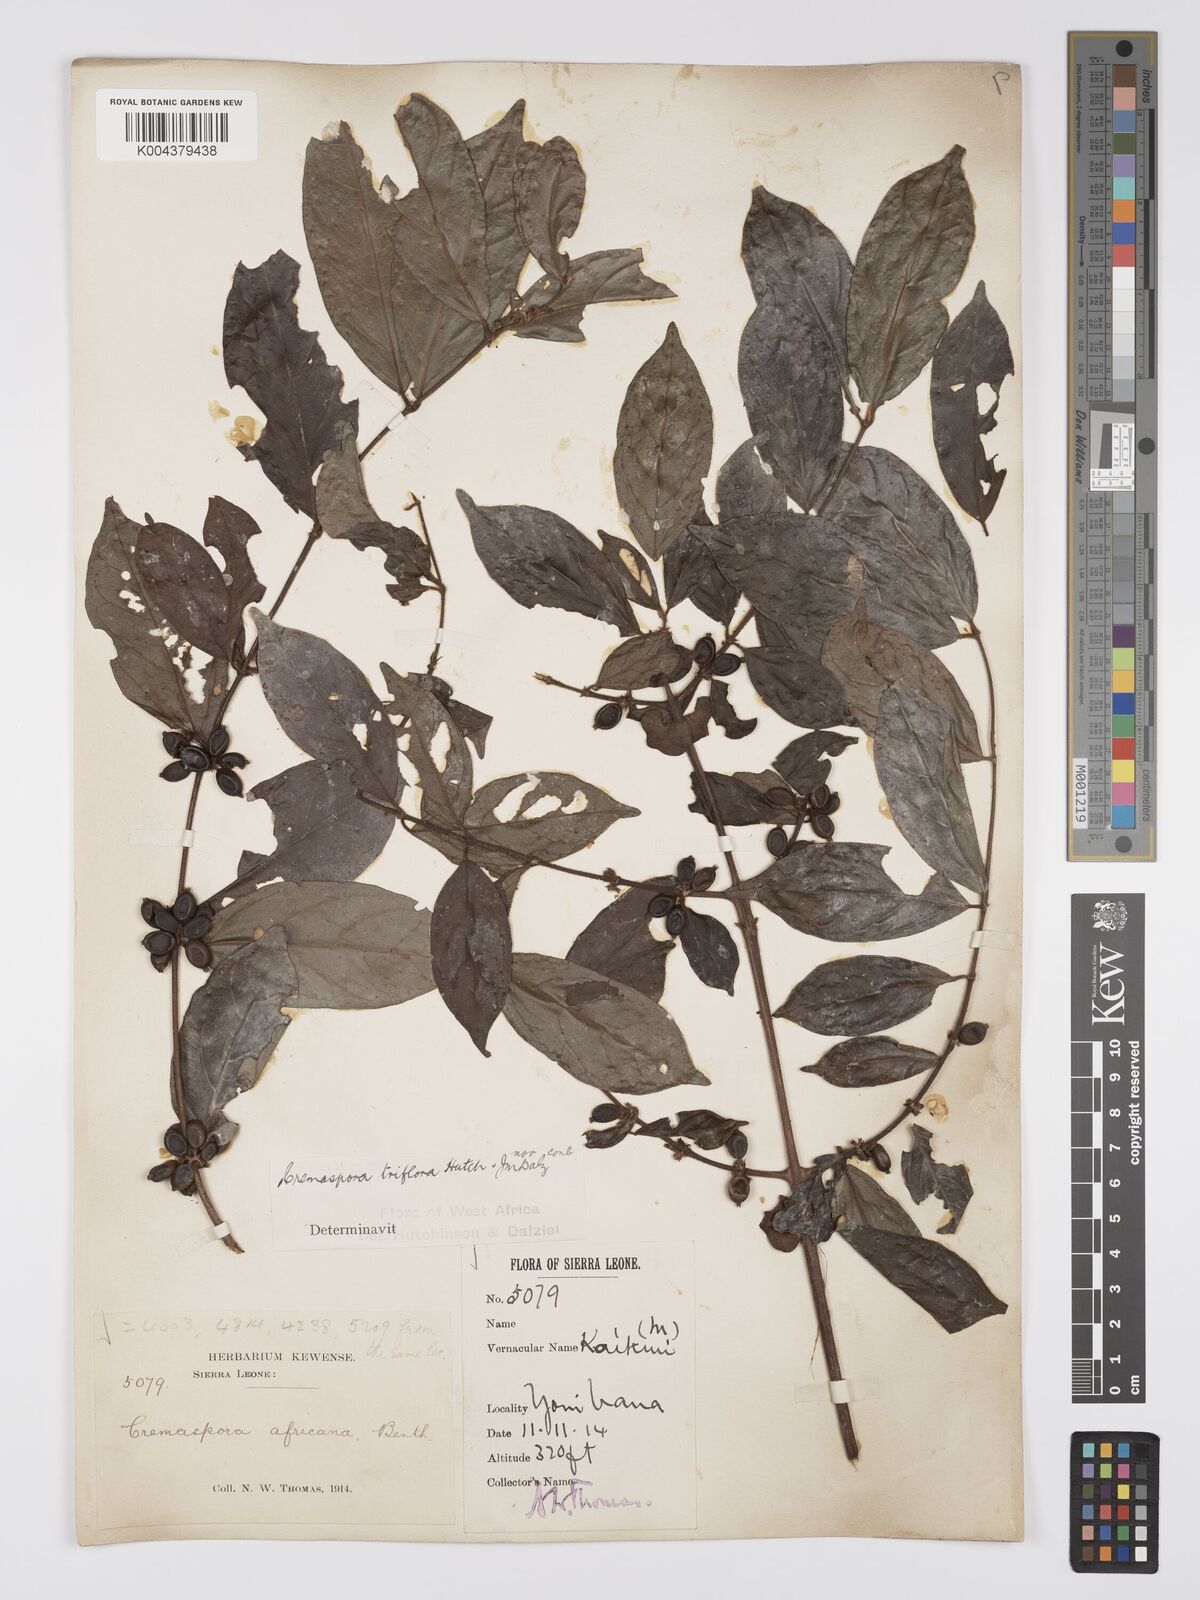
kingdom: Plantae
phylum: Tracheophyta
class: Magnoliopsida
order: Gentianales
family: Rubiaceae
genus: Cremaspora
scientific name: Cremaspora triflora
